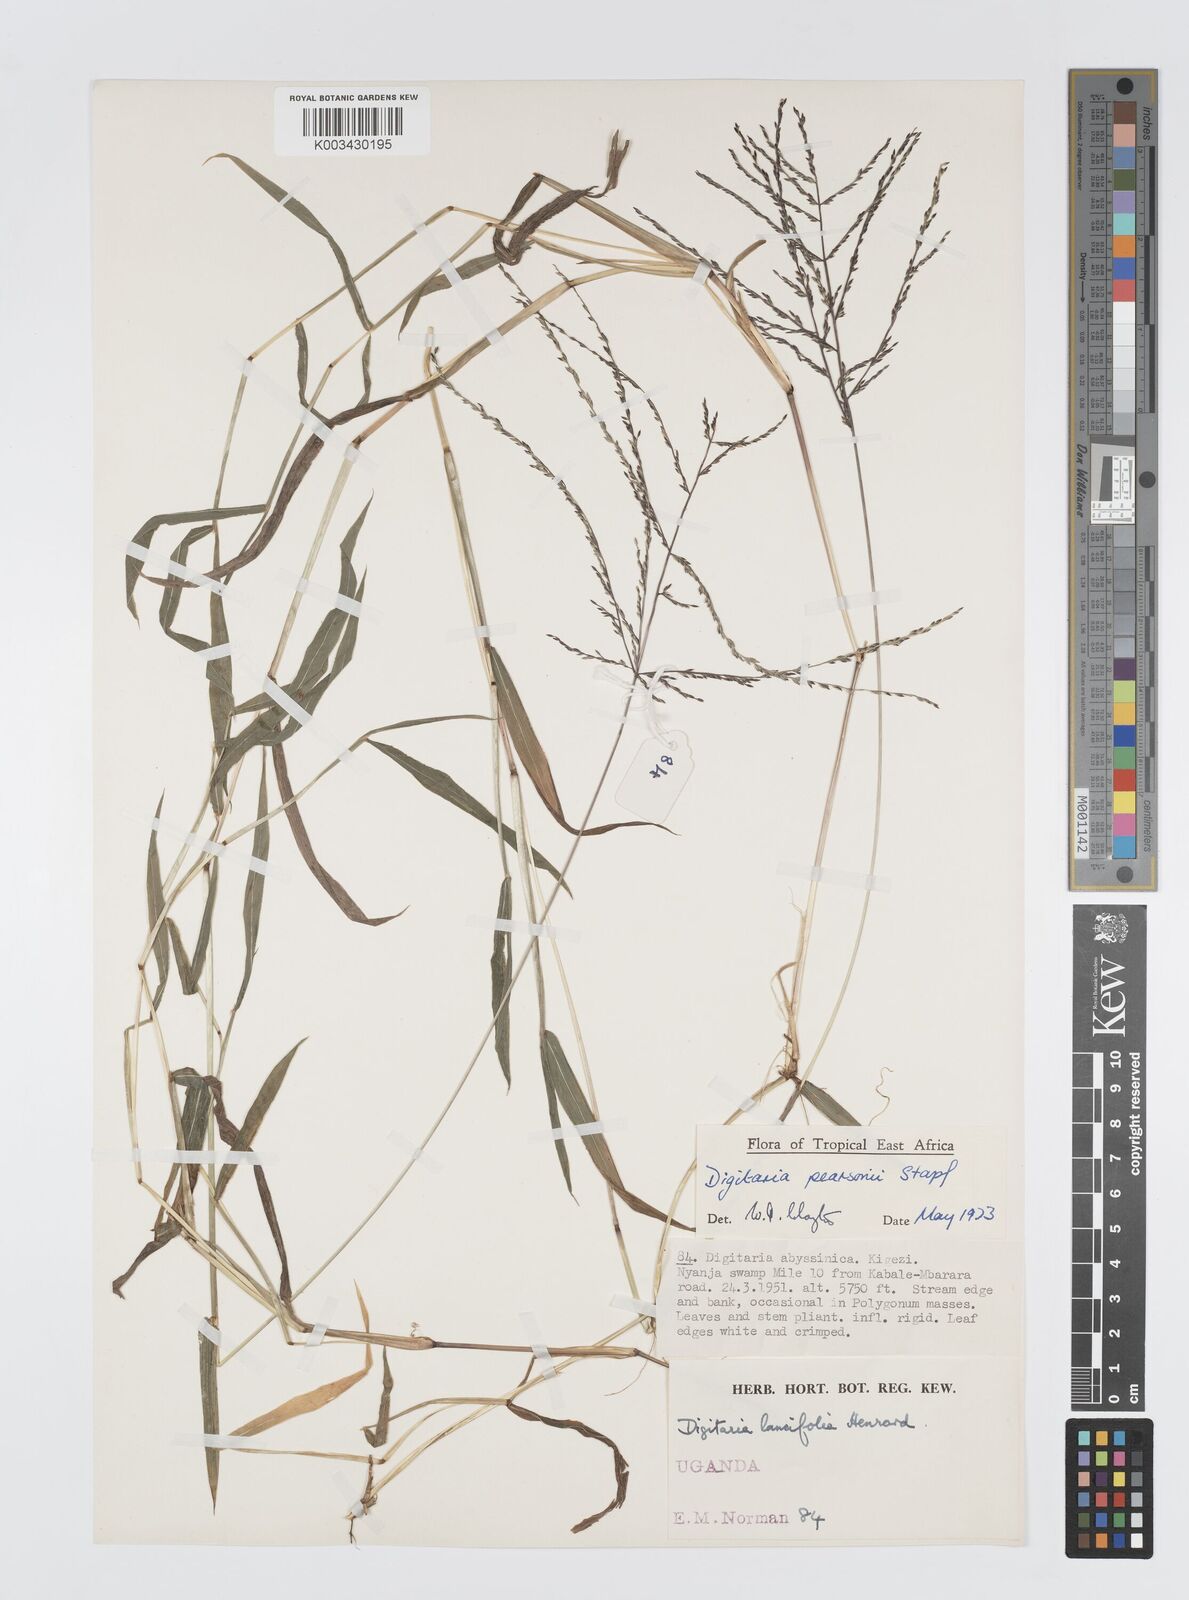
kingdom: Plantae
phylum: Tracheophyta
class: Liliopsida
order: Poales
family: Poaceae
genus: Digitaria
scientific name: Digitaria pearsonii
